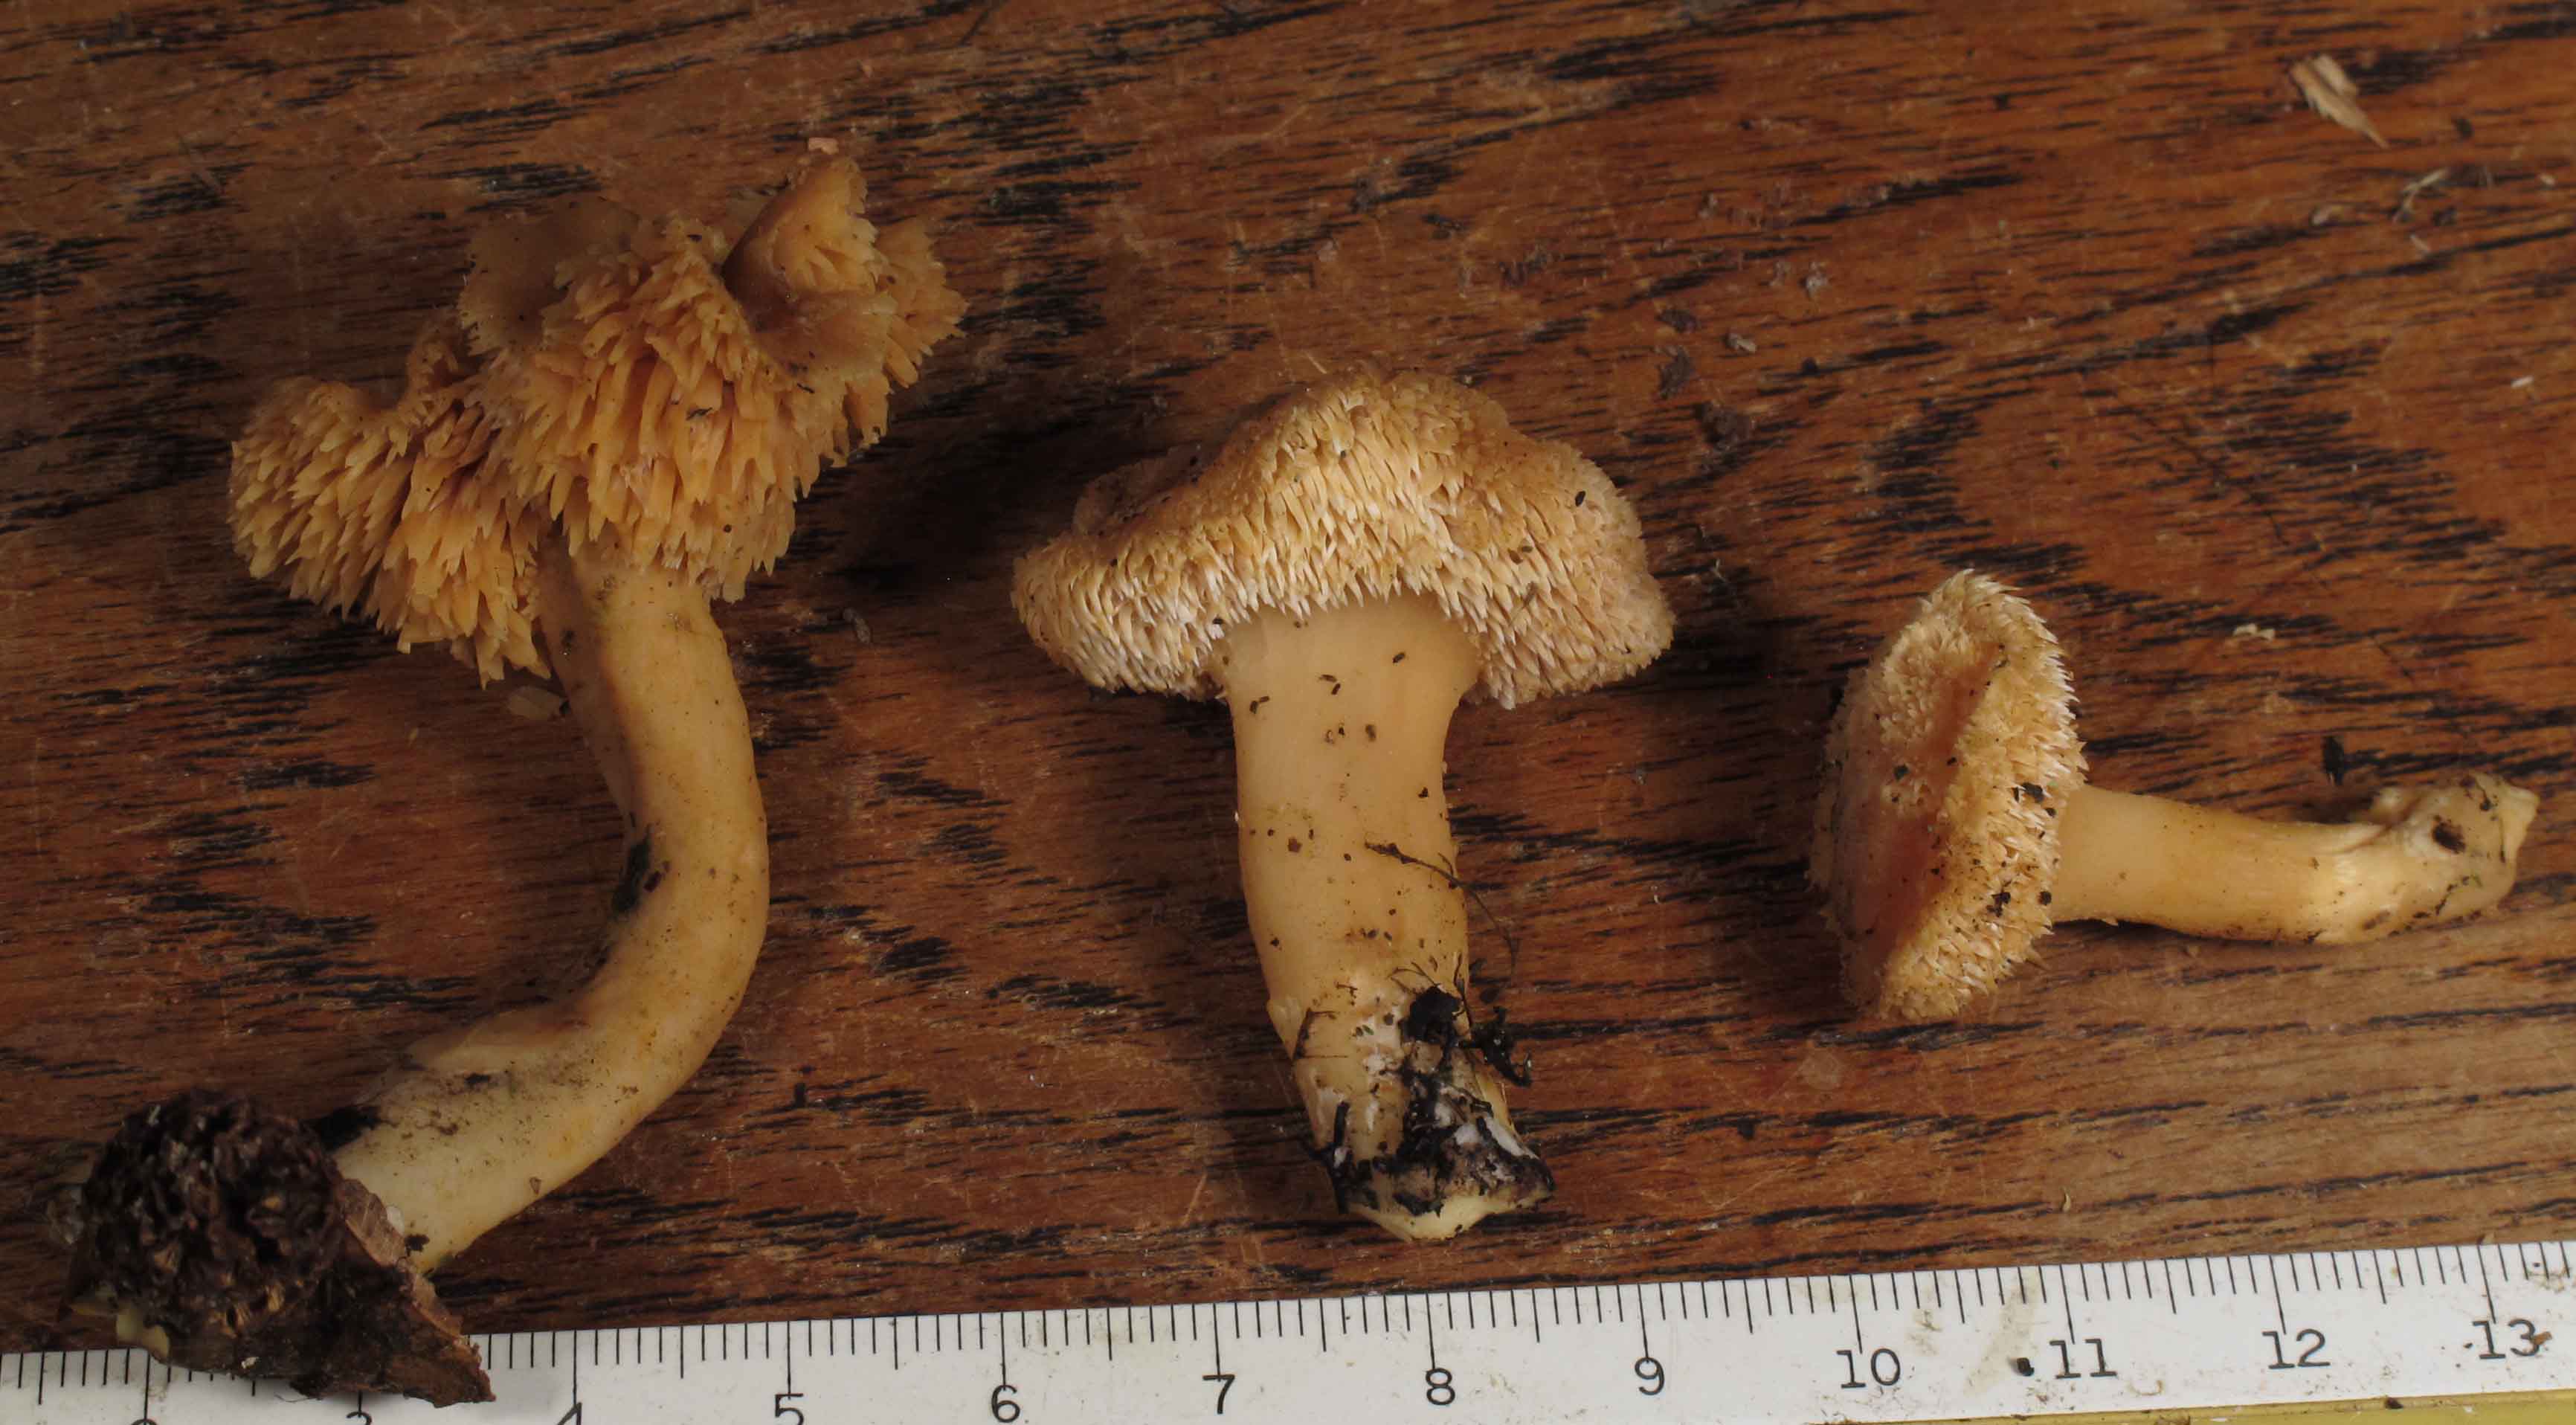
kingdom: Fungi
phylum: Basidiomycota
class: Agaricomycetes
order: Cantharellales
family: Hydnaceae
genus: Hydnum
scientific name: Hydnum
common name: pigsvamp
